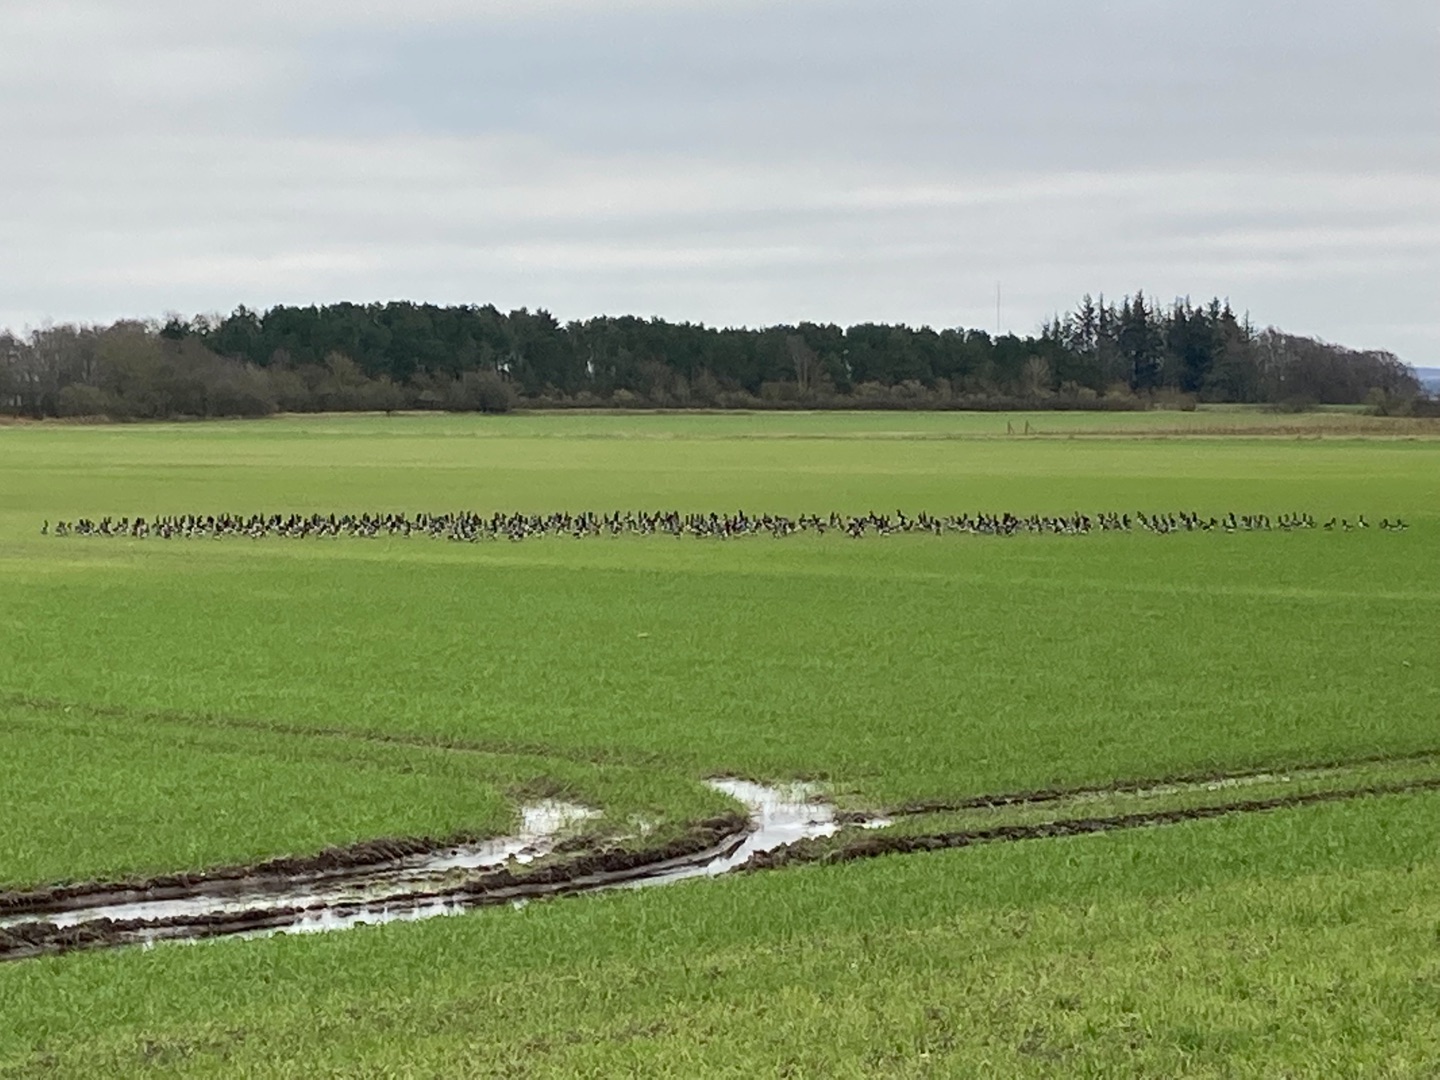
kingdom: Animalia
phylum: Chordata
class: Aves
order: Anseriformes
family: Anatidae
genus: Branta
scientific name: Branta bernicla
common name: Lysbuget knortegås
